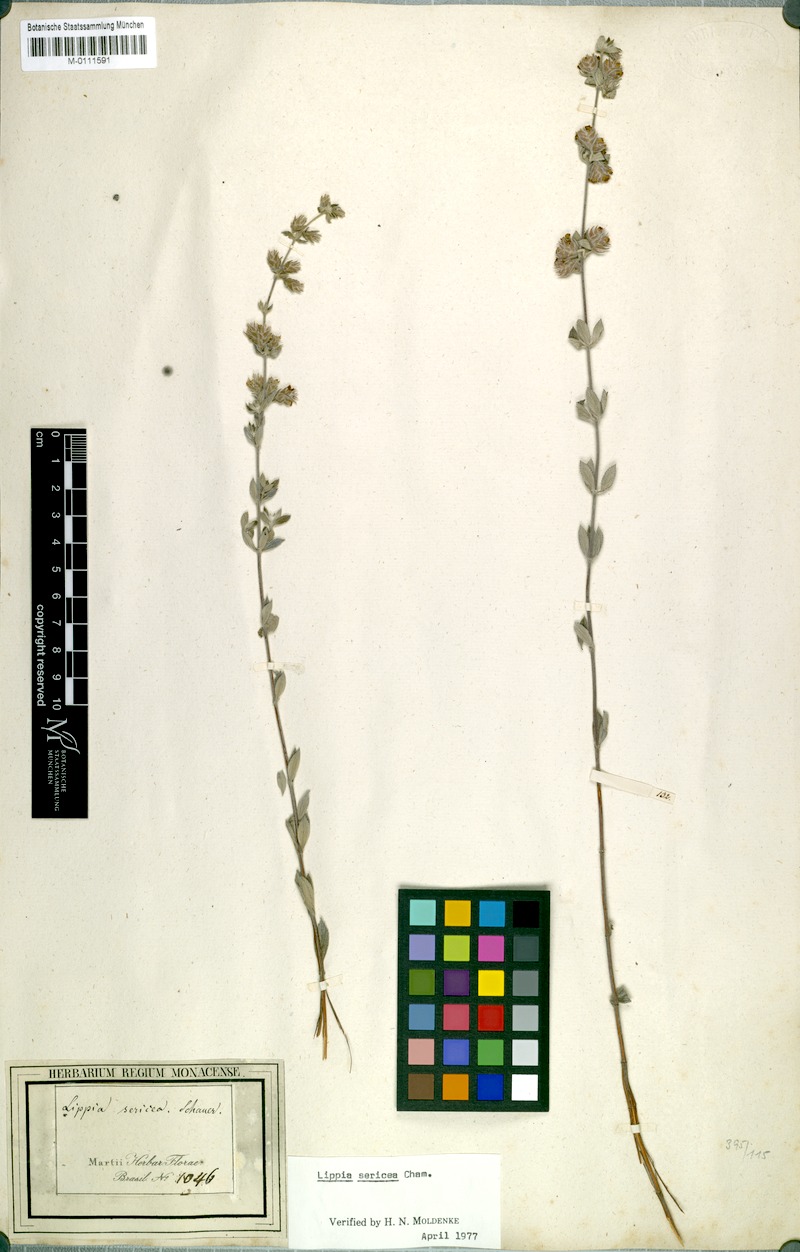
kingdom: Plantae
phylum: Tracheophyta
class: Magnoliopsida
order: Lamiales
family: Verbenaceae
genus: Lippia
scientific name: Lippia sericea
